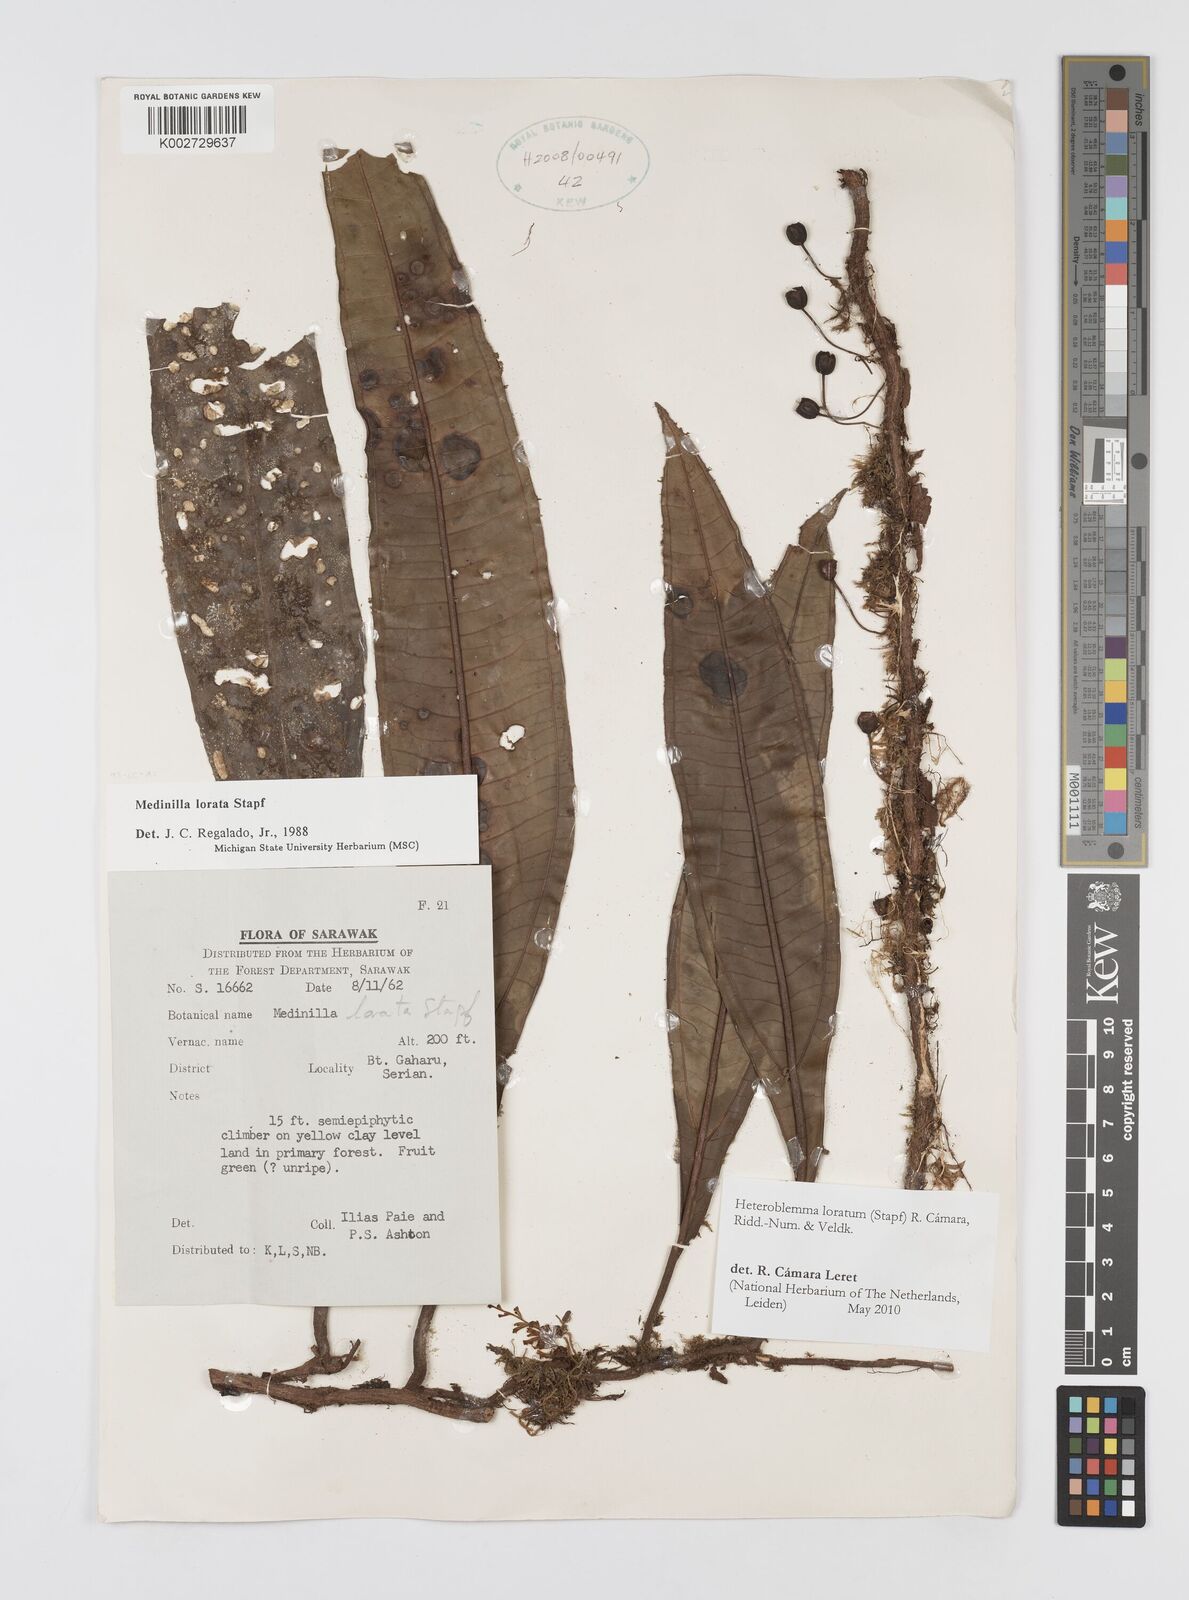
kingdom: Plantae
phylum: Tracheophyta
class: Magnoliopsida
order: Myrtales
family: Melastomataceae
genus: Heteroblemma
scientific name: Heteroblemma loratum
